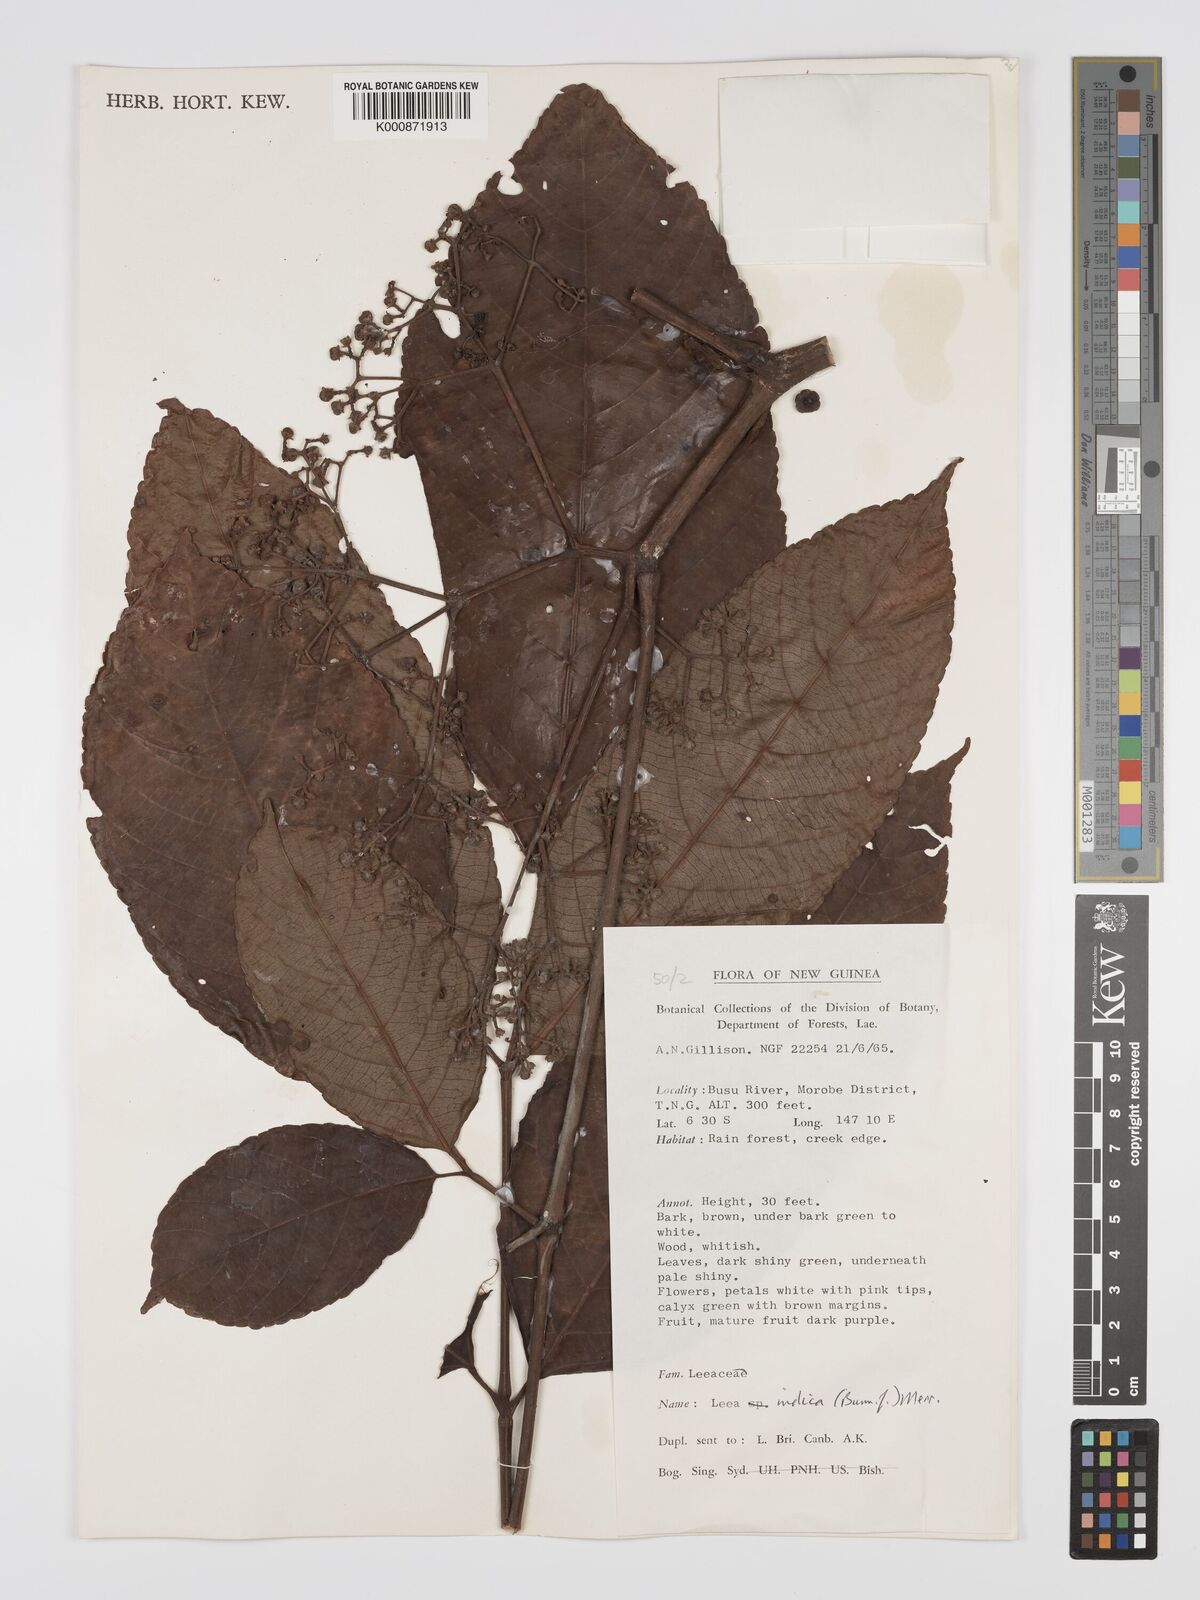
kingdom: Plantae
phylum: Tracheophyta
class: Magnoliopsida
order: Vitales
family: Vitaceae
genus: Leea
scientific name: Leea indica
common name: Bandicoot-berry
